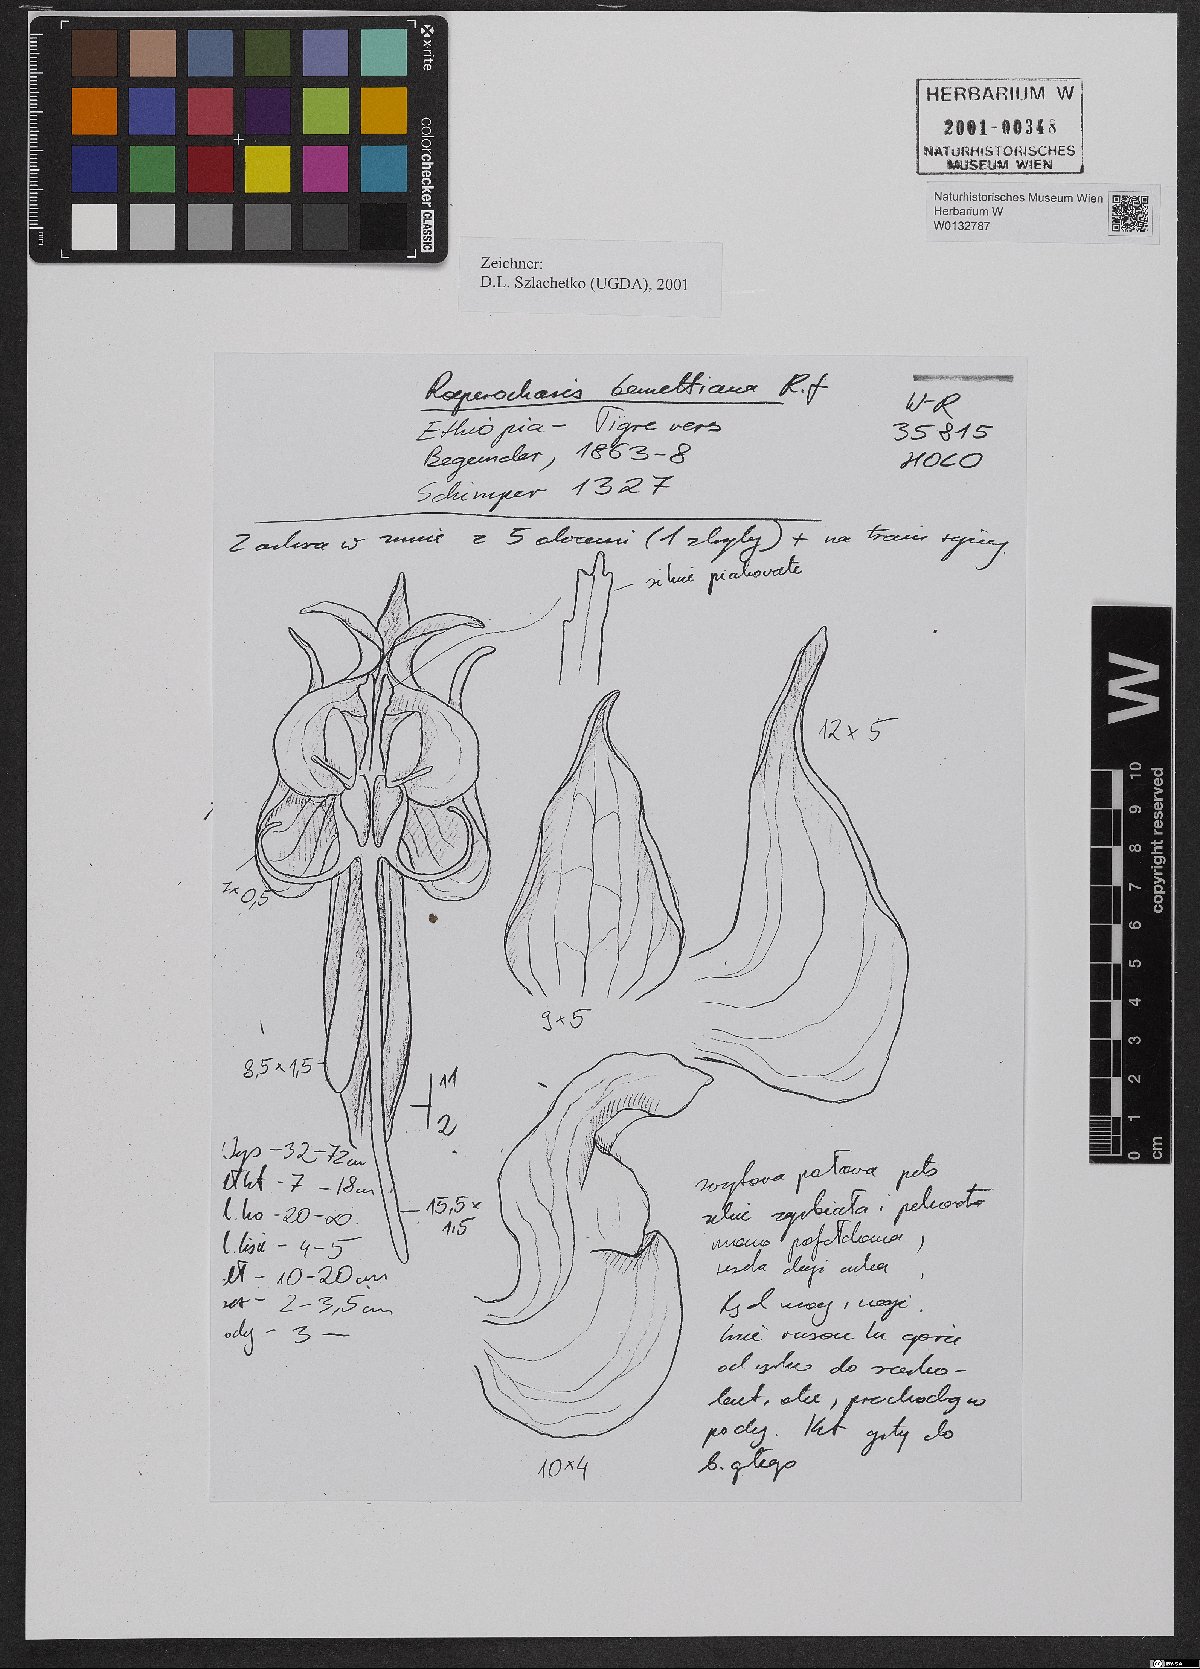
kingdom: Plantae
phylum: Tracheophyta
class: Liliopsida
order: Asparagales
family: Orchidaceae
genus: Roeperocharis
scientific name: Roeperocharis bennettiana
